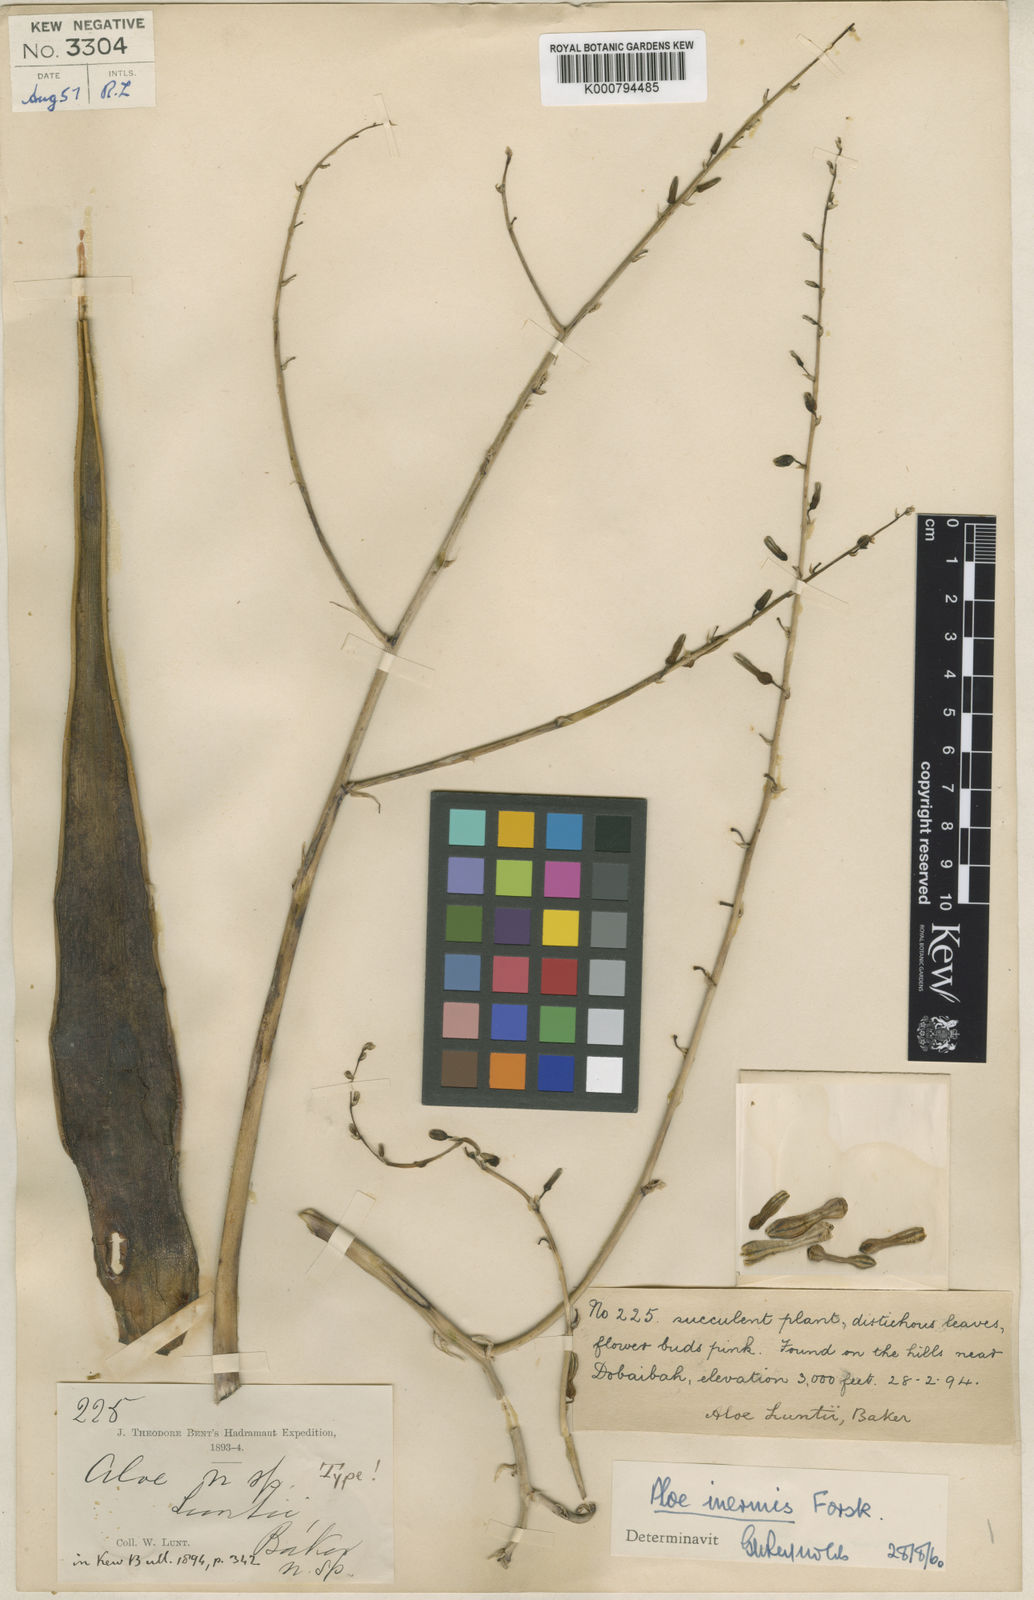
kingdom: Plantae
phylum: Tracheophyta
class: Liliopsida
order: Asparagales
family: Asphodelaceae
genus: Aloe
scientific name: Aloe inermis
